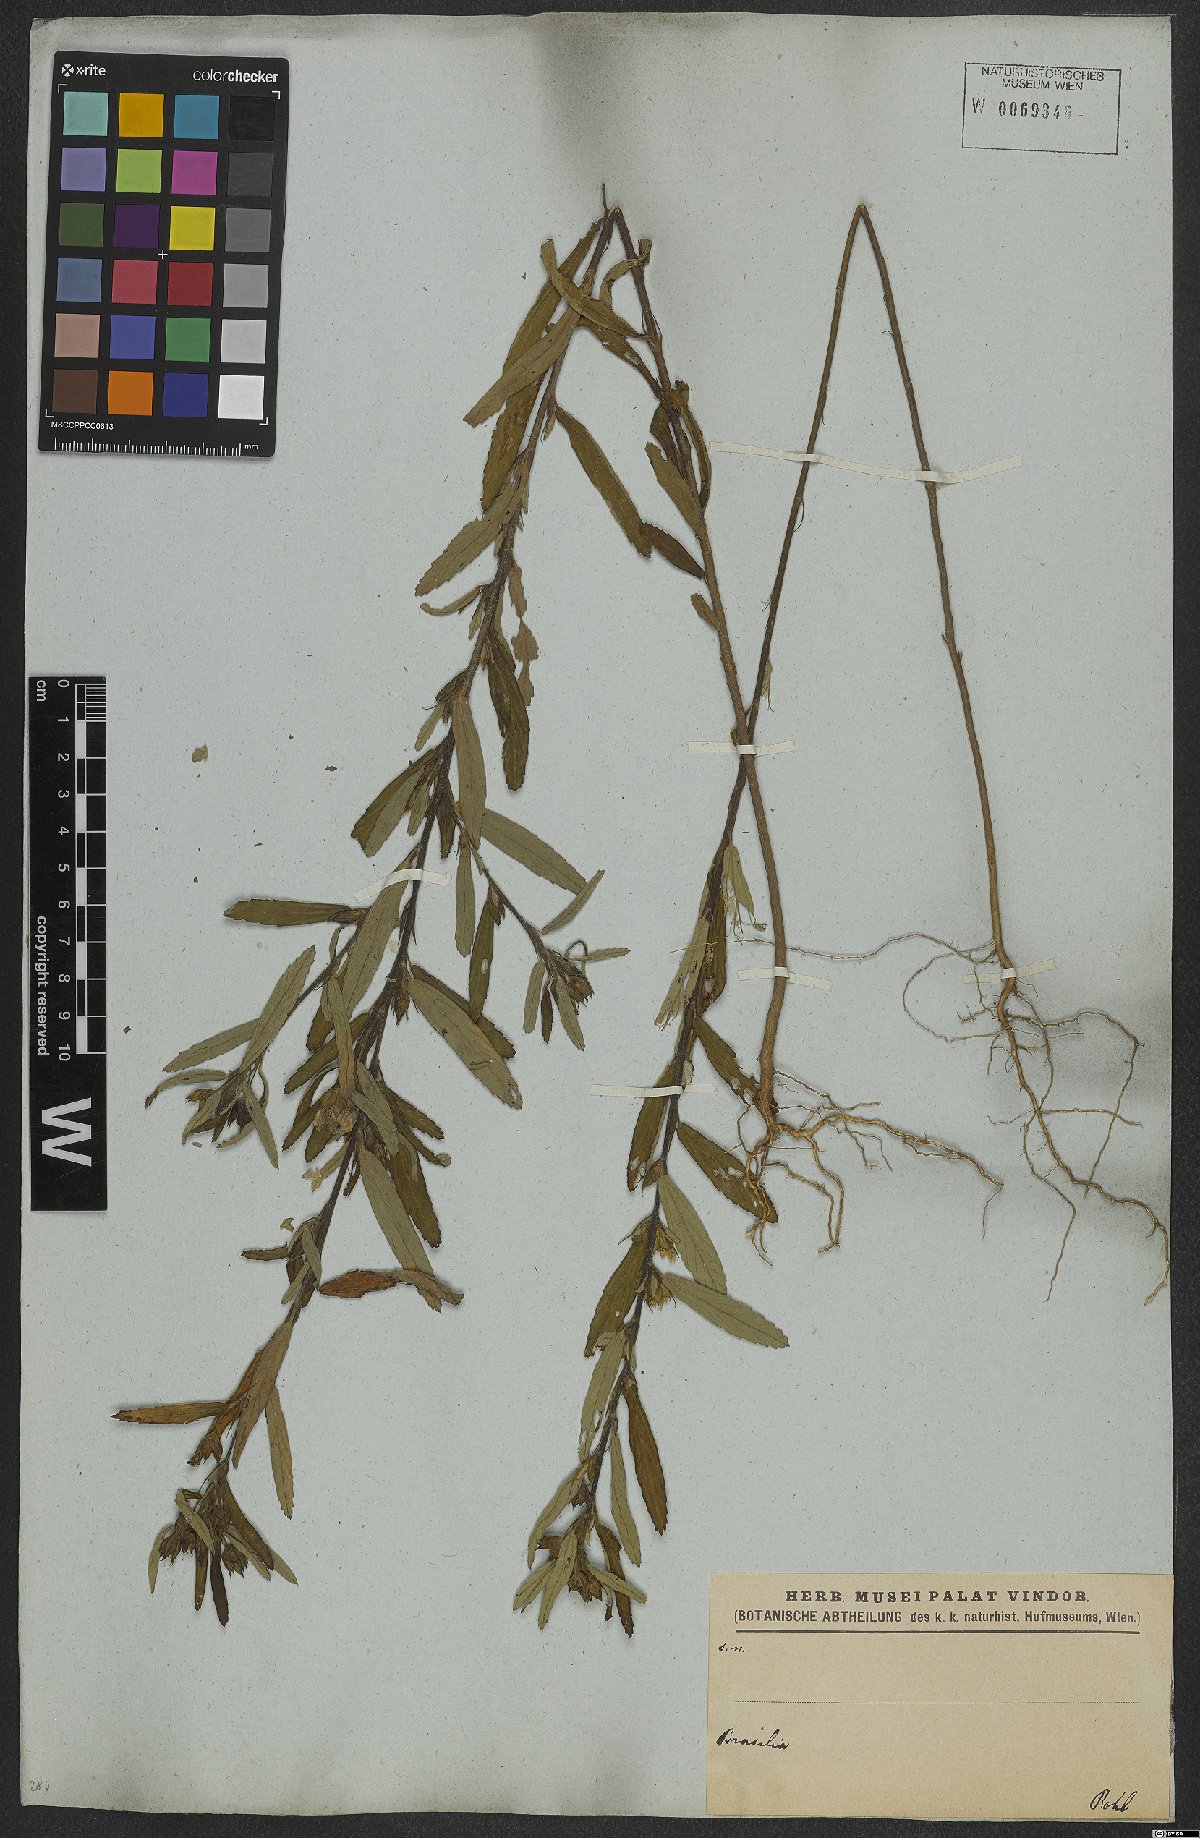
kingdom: Plantae
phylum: Tracheophyta
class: Magnoliopsida
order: Malvales
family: Malvaceae
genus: Sida
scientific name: Sida spinosa
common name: Prickly fanpetals
